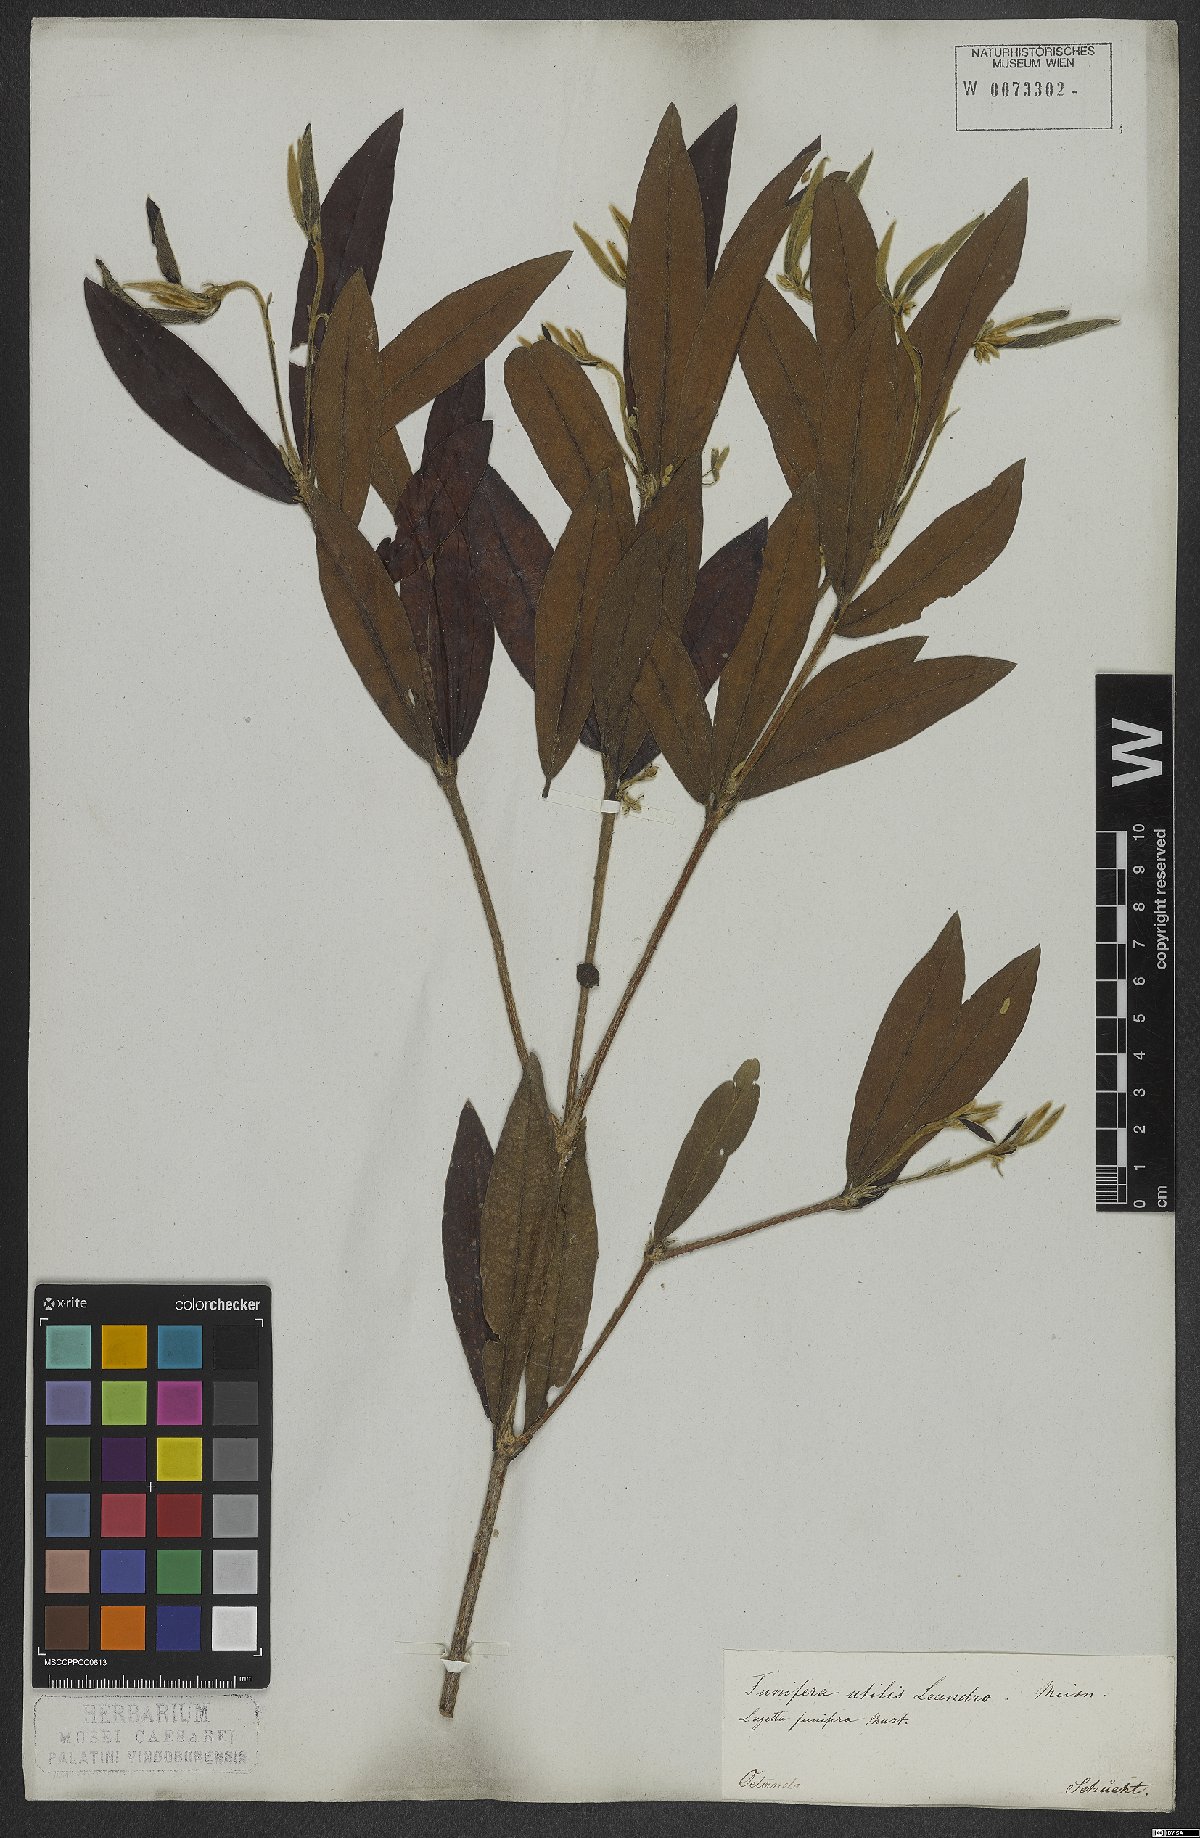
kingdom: Plantae
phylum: Tracheophyta
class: Magnoliopsida
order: Malvales
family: Thymelaeaceae
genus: Funifera
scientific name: Funifera brasiliensis
